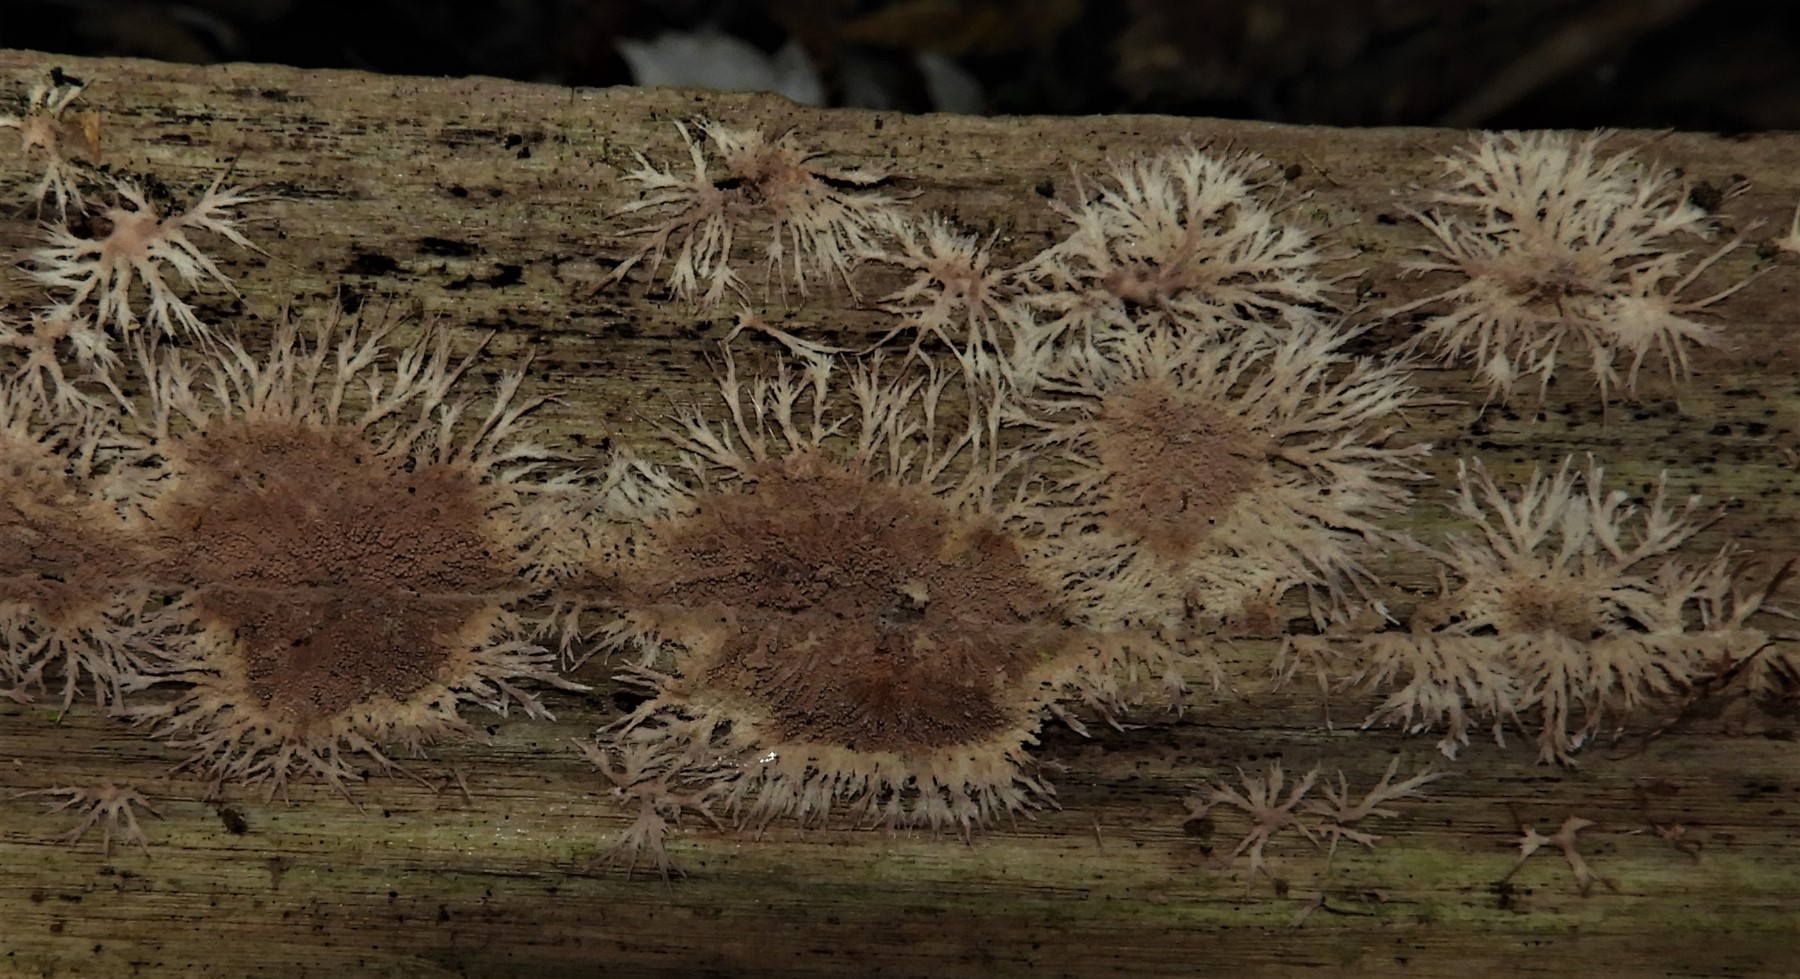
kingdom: Fungi
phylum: Basidiomycota
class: Agaricomycetes
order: Polyporales
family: Steccherinaceae
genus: Steccherinum
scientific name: Steccherinum fimbriatum
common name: trådet skønpig
